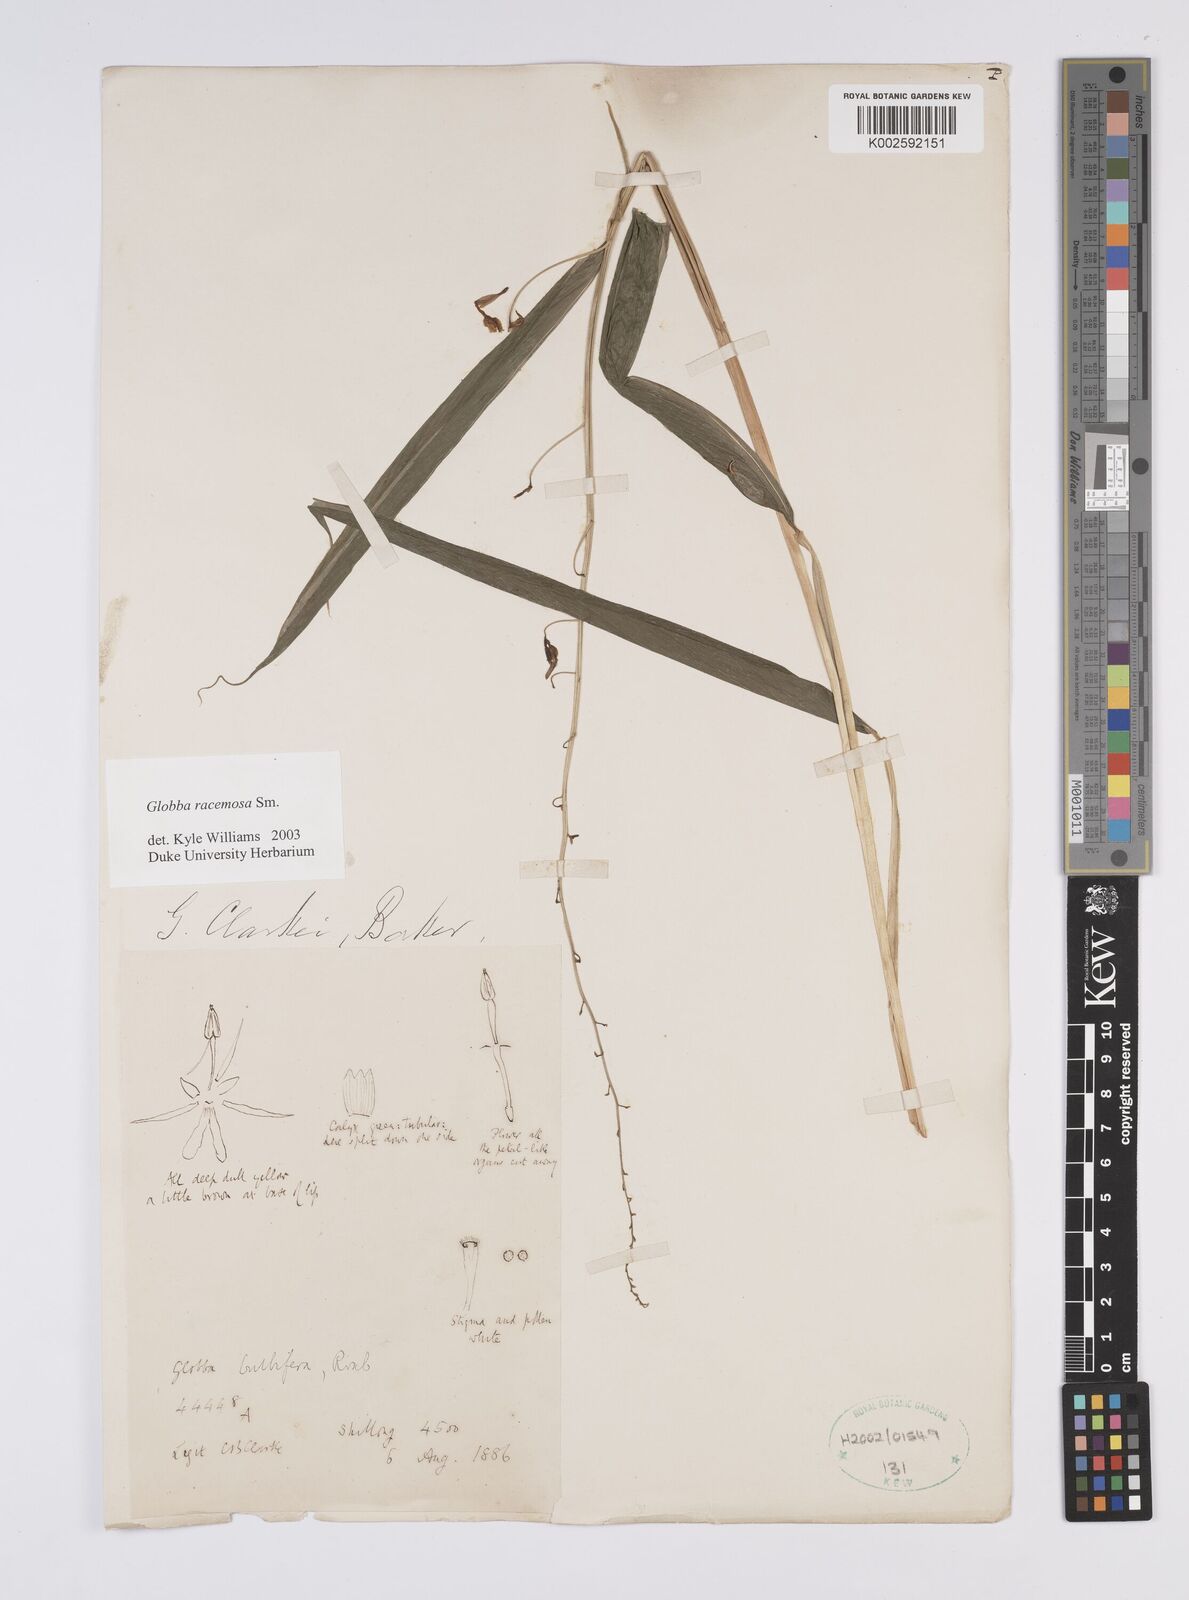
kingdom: Plantae
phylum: Tracheophyta
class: Liliopsida
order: Zingiberales
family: Zingiberaceae
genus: Globba
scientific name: Globba racemosa
